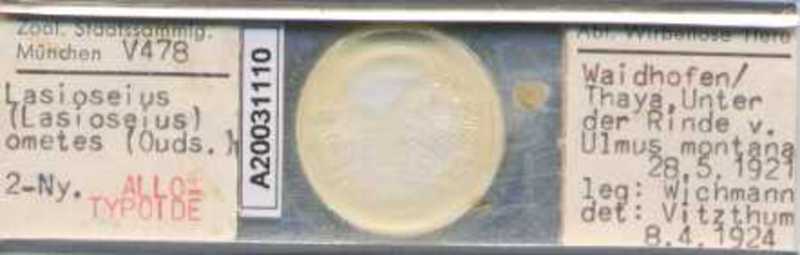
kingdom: Animalia
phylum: Arthropoda
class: Arachnida
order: Mesostigmata
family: Blattisociidae
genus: Lasioseius
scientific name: Lasioseius ometes
